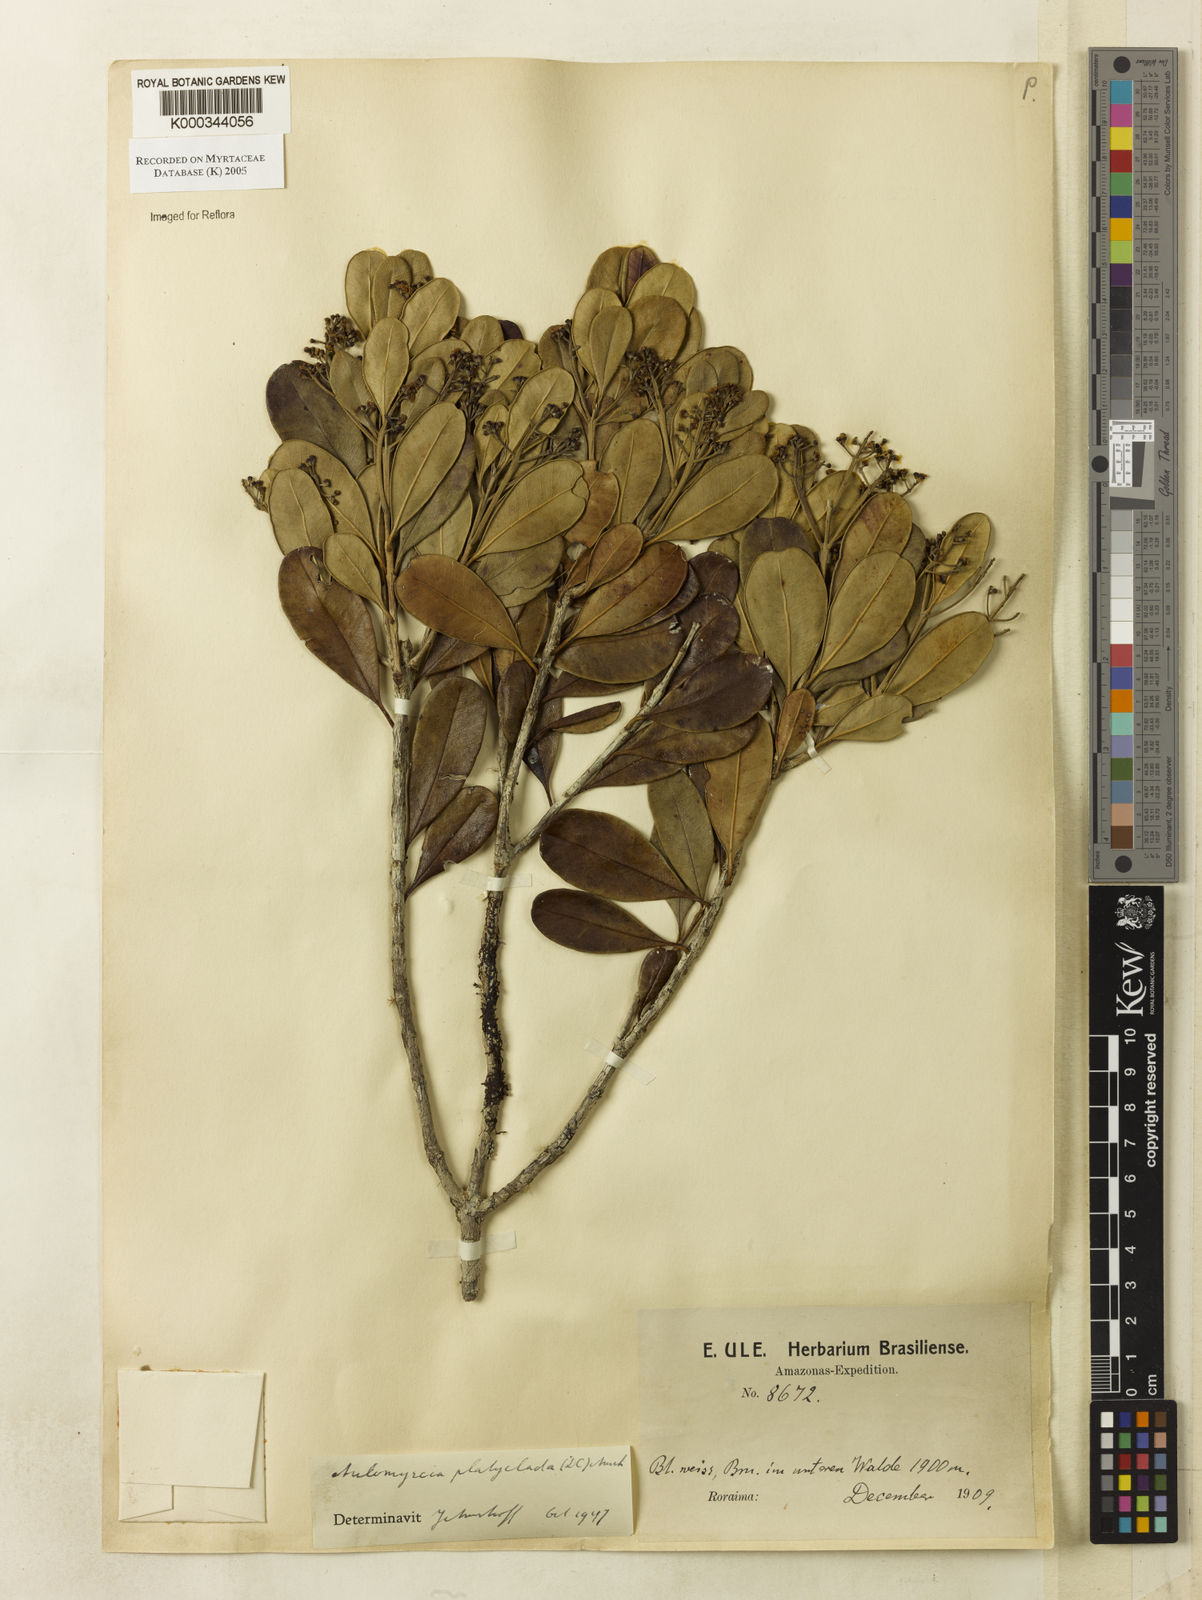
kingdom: Plantae
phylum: Tracheophyta
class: Magnoliopsida
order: Myrtales
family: Myrtaceae
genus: Myrcia
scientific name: Myrcia platyclada
